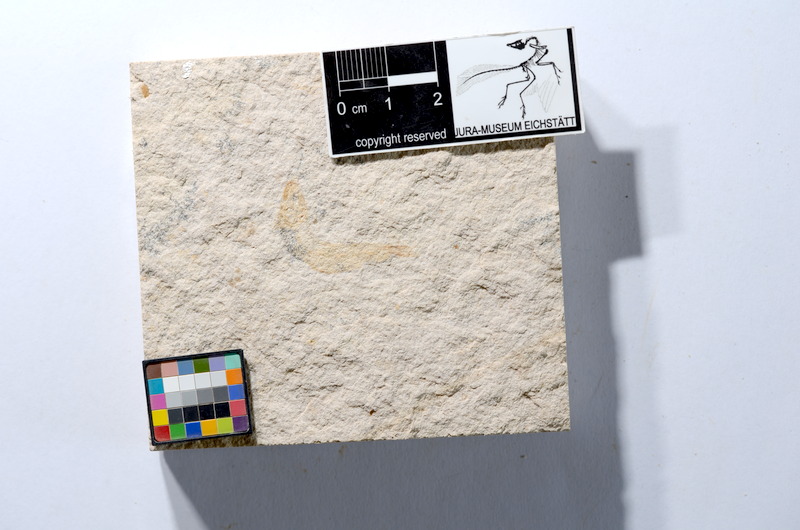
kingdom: Animalia
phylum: Chordata
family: Ascalaboidae
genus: Tharsis
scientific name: Tharsis dubius
